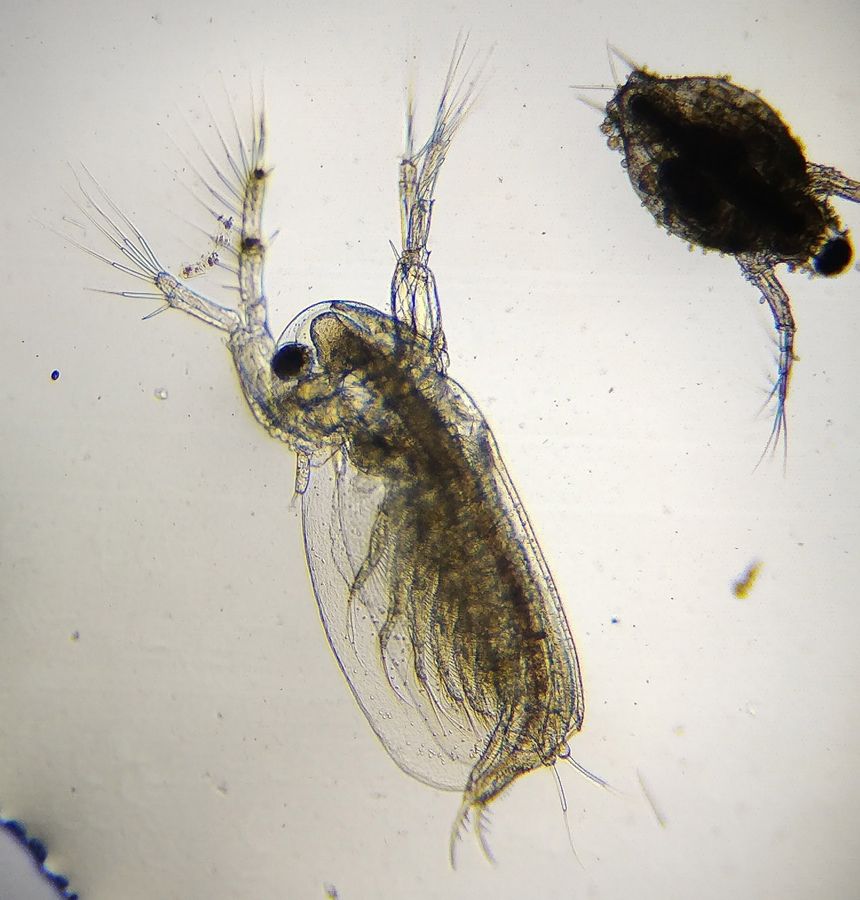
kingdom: Animalia
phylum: Arthropoda
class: Branchiopoda
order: Diplostraca
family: Sididae
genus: Sida
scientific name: Sida crystallina
